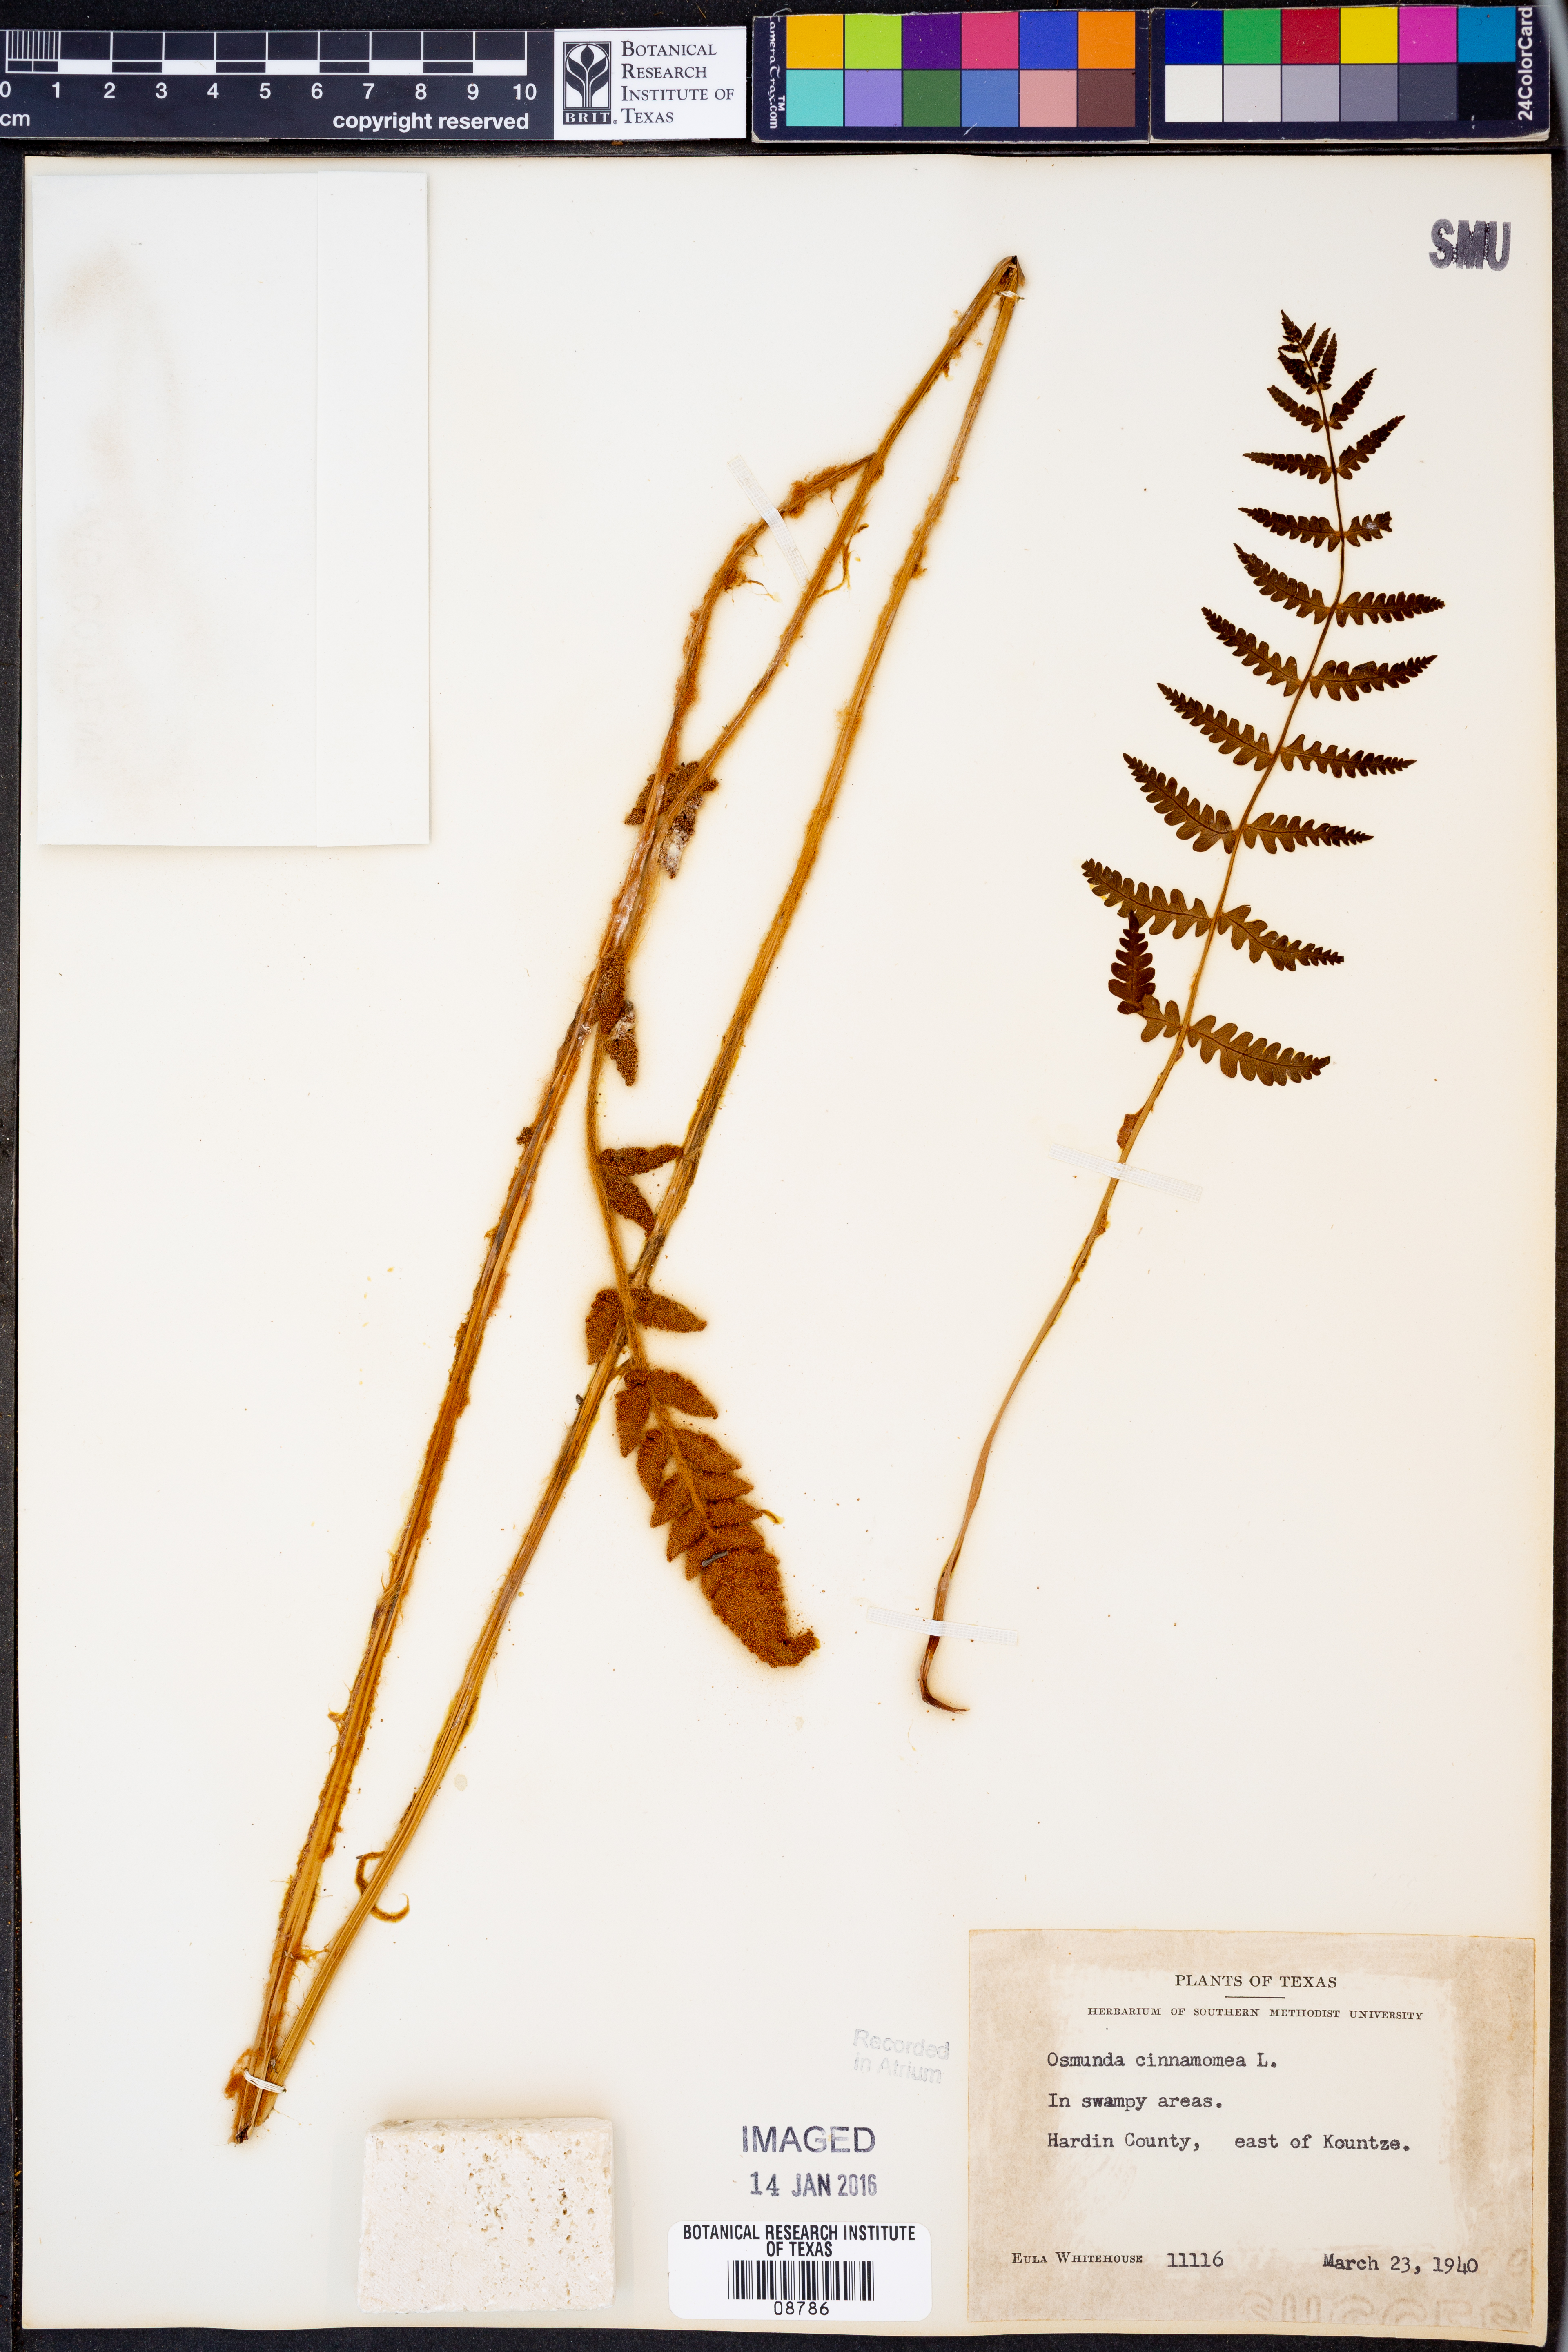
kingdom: Plantae
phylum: Tracheophyta
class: Polypodiopsida
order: Osmundales
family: Osmundaceae
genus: Osmundastrum
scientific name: Osmundastrum cinnamomeum
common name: Cinnamon fern
